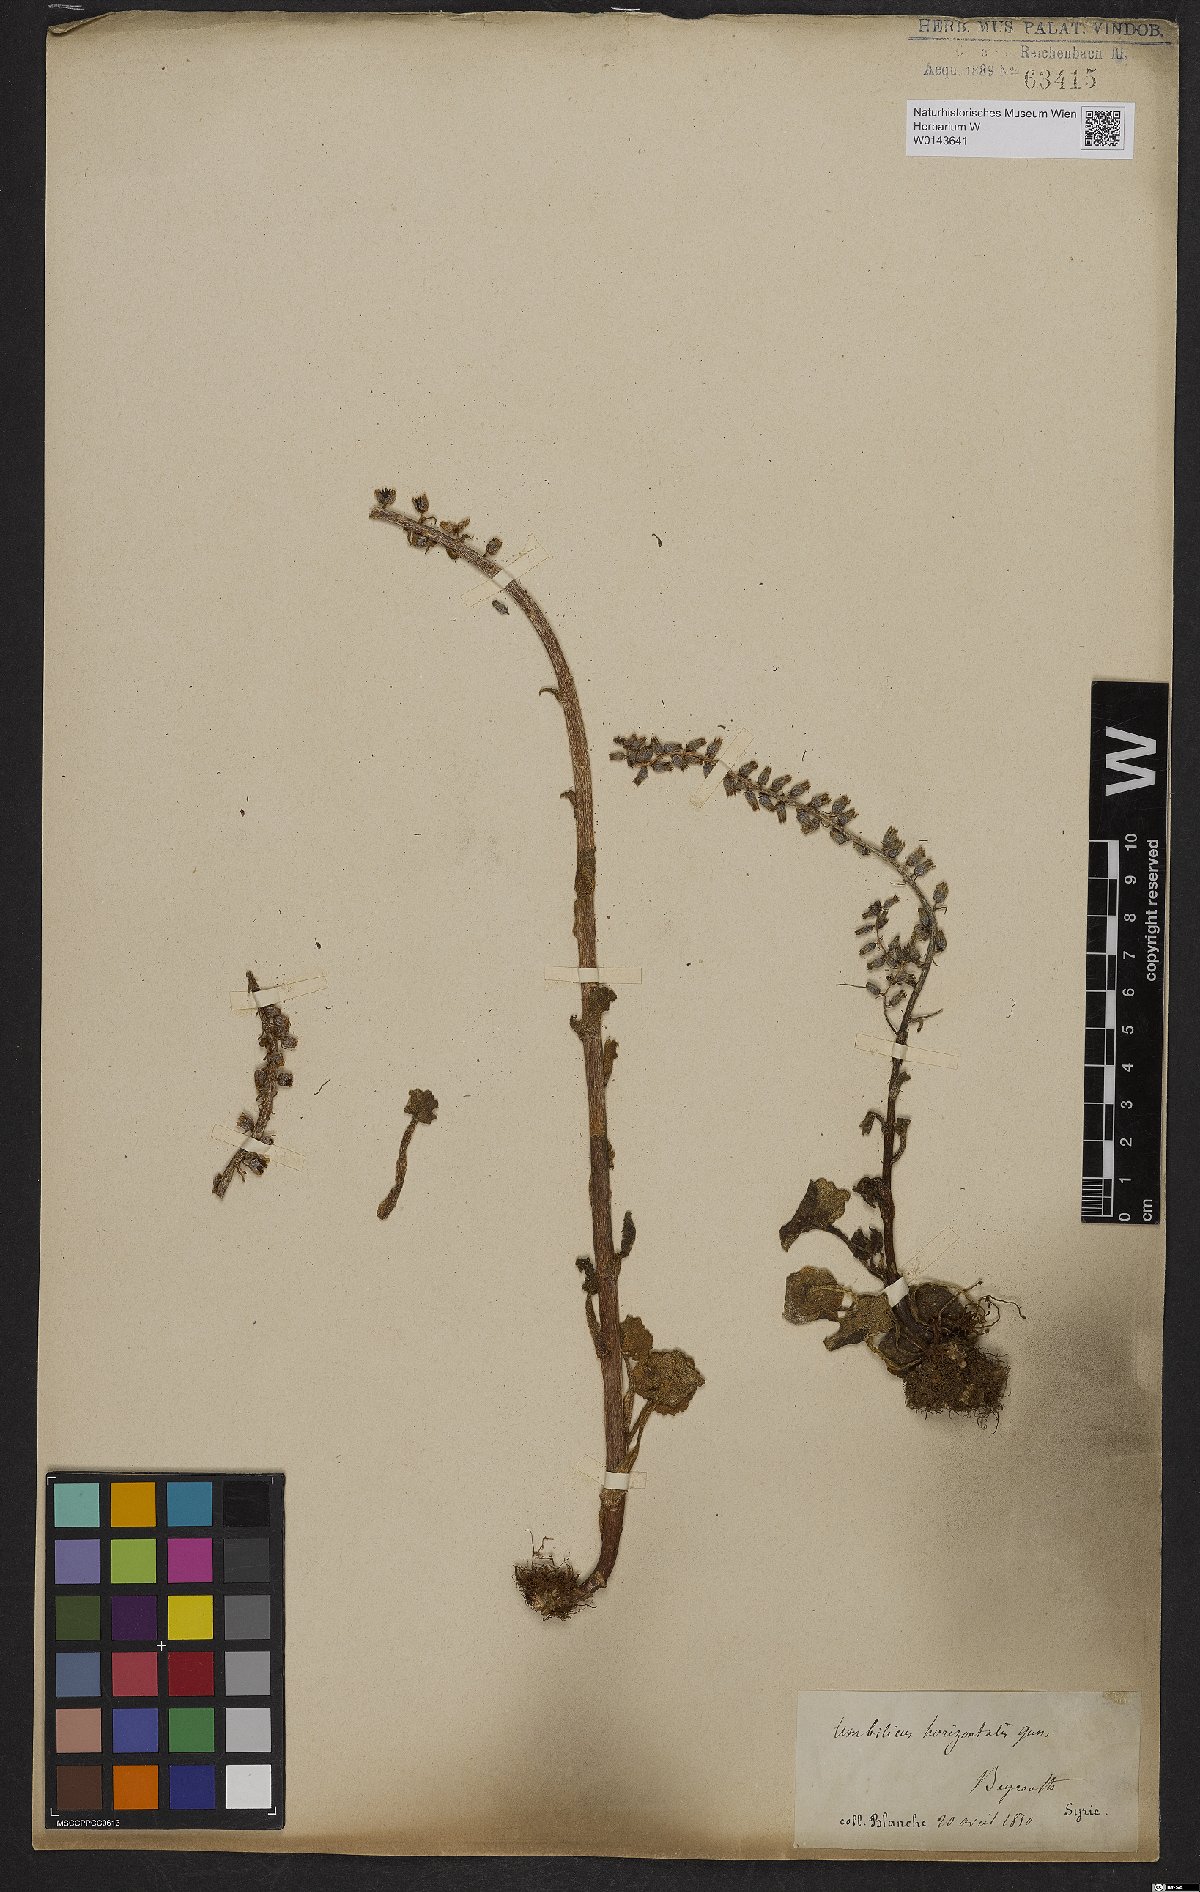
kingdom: Plantae
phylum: Tracheophyta
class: Magnoliopsida
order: Saxifragales
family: Crassulaceae
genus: Umbilicus
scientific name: Umbilicus horizontalis
